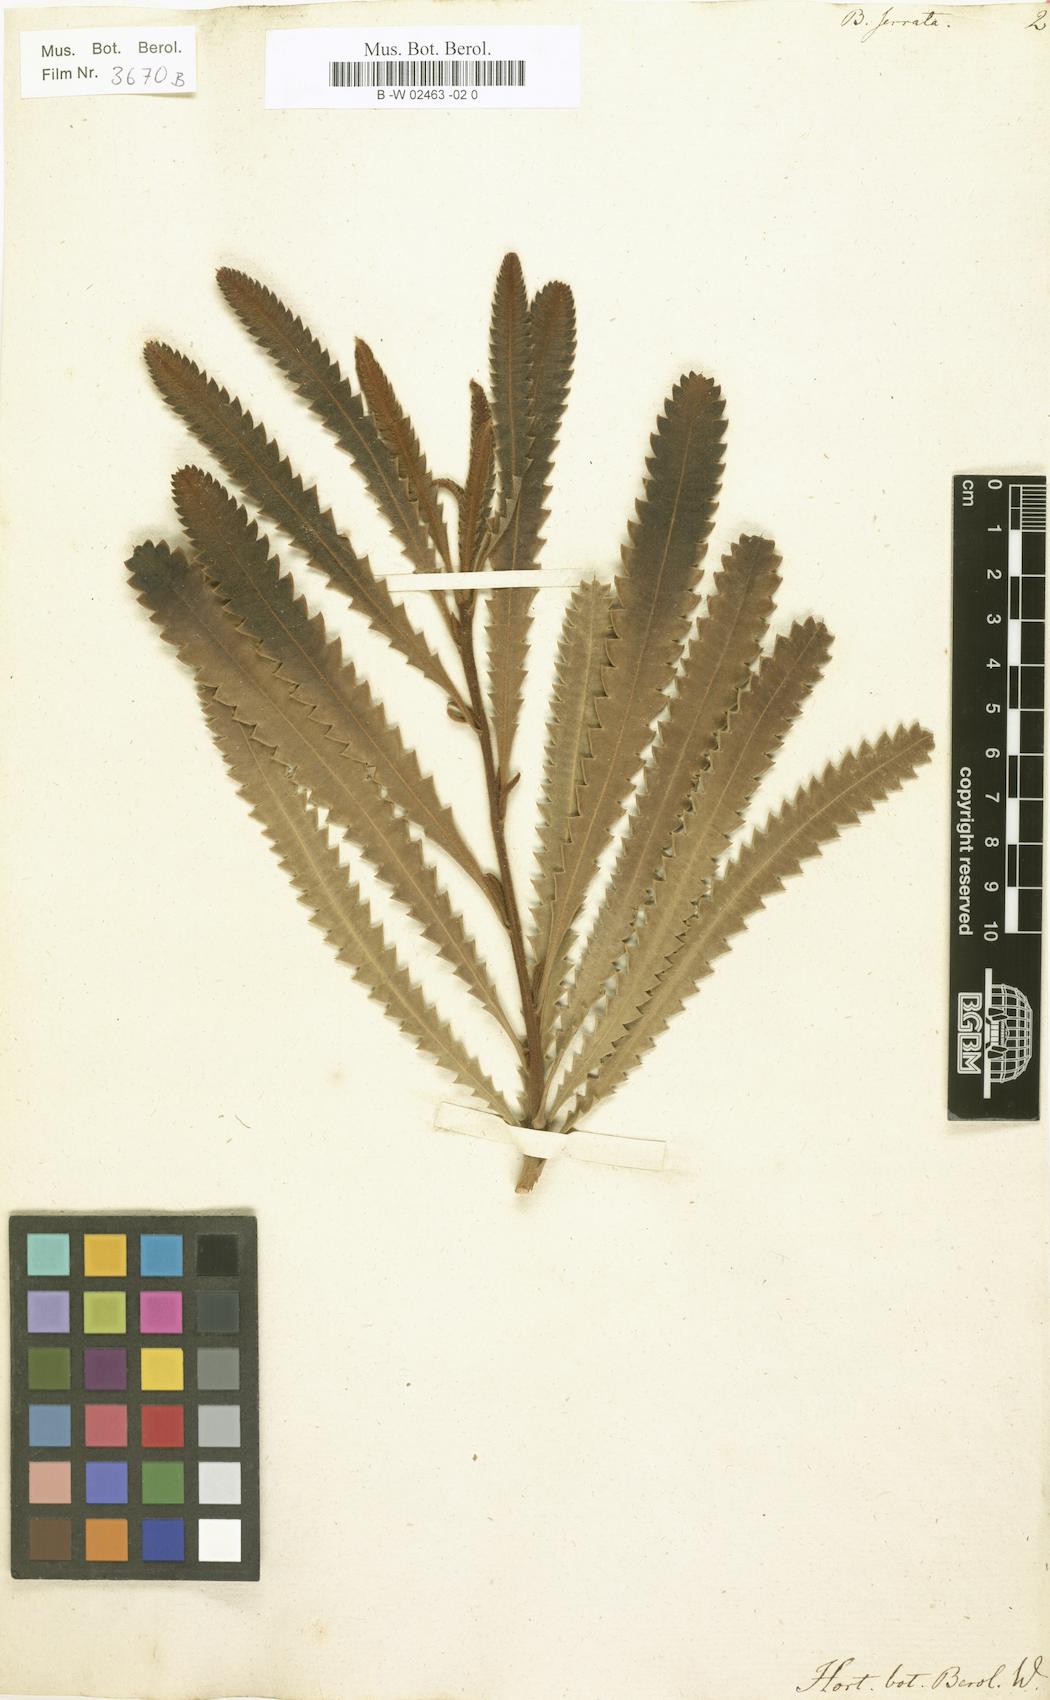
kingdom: Plantae
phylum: Tracheophyta
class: Magnoliopsida
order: Proteales
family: Proteaceae
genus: Banksia
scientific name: Banksia serrata
